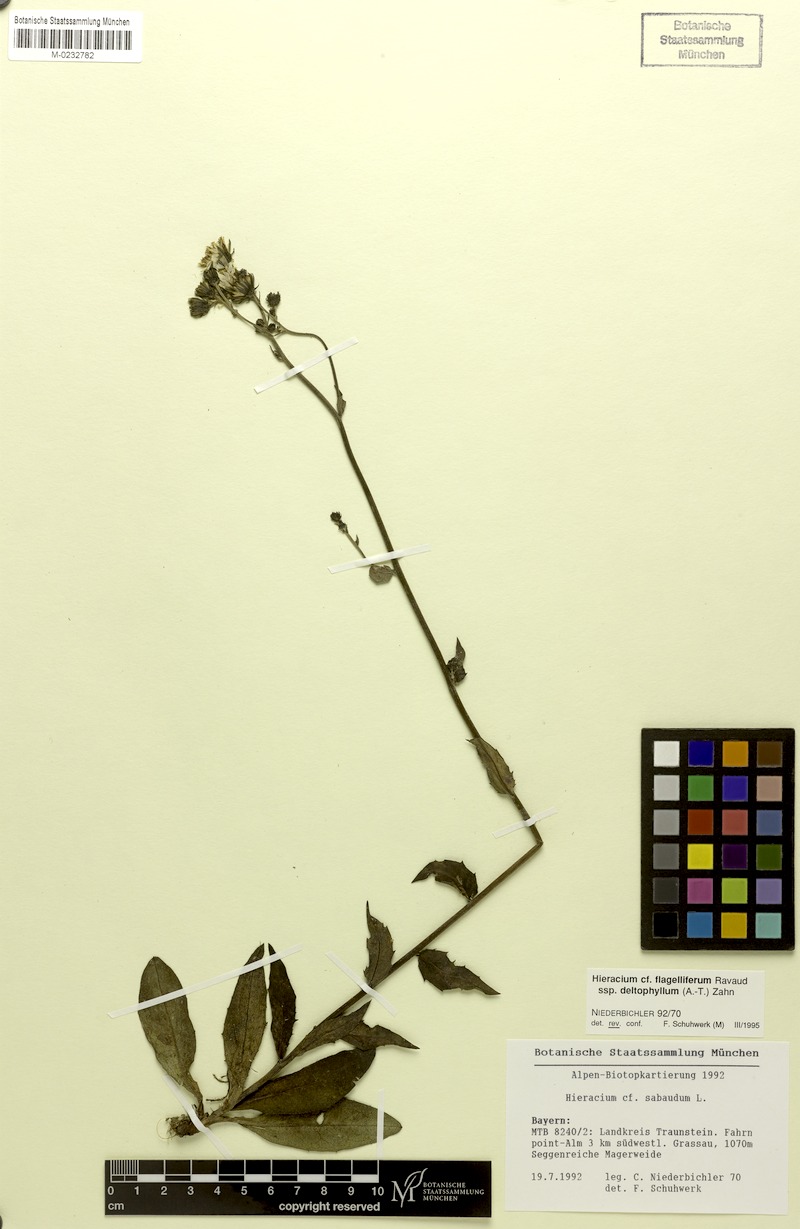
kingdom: Plantae
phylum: Tracheophyta
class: Magnoliopsida
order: Asterales
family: Asteraceae
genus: Hieracium
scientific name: Hieracium flagelliferum
